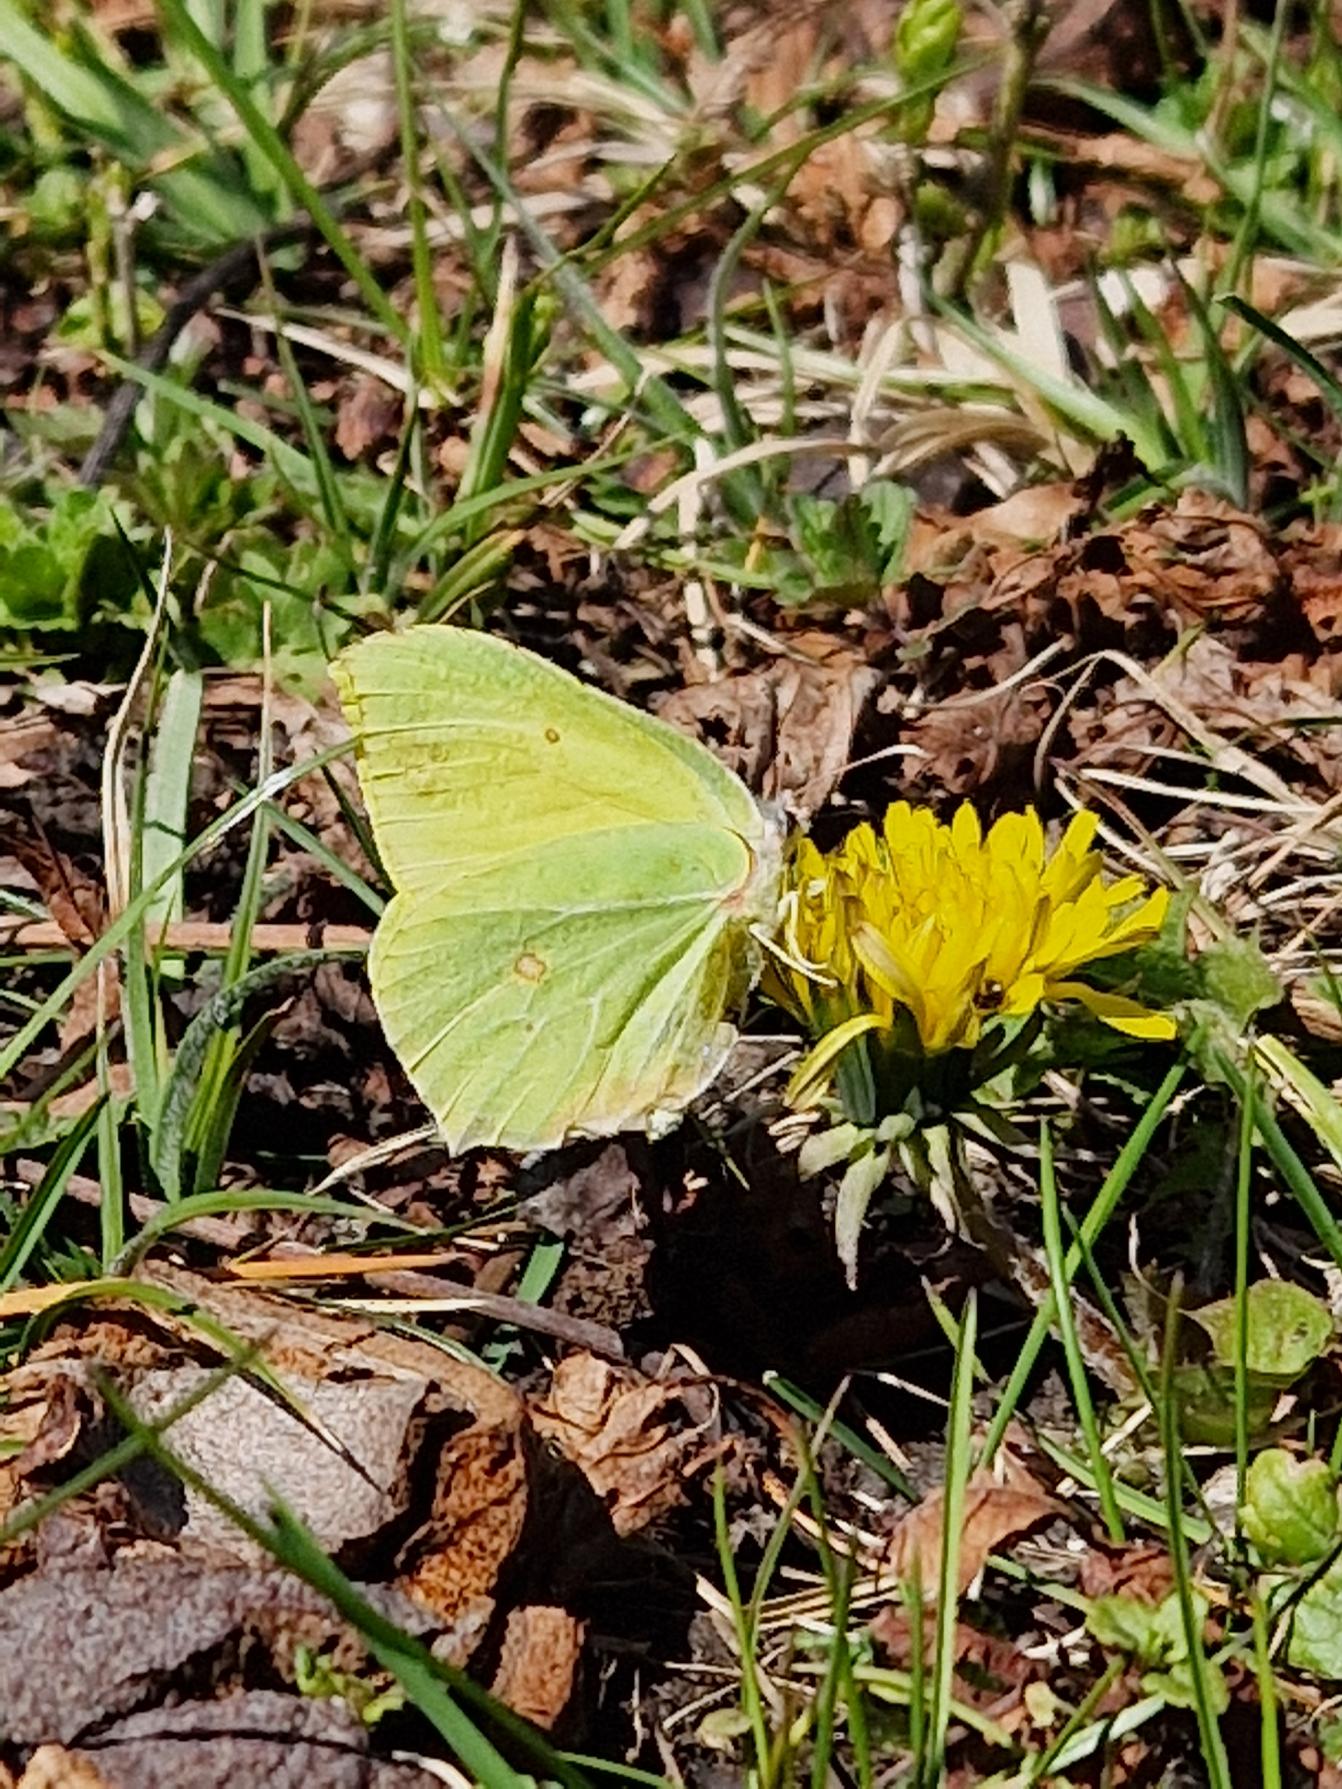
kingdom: Animalia
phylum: Arthropoda
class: Insecta
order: Lepidoptera
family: Pieridae
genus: Gonepteryx
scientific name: Gonepteryx rhamni
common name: Citronsommerfugl
